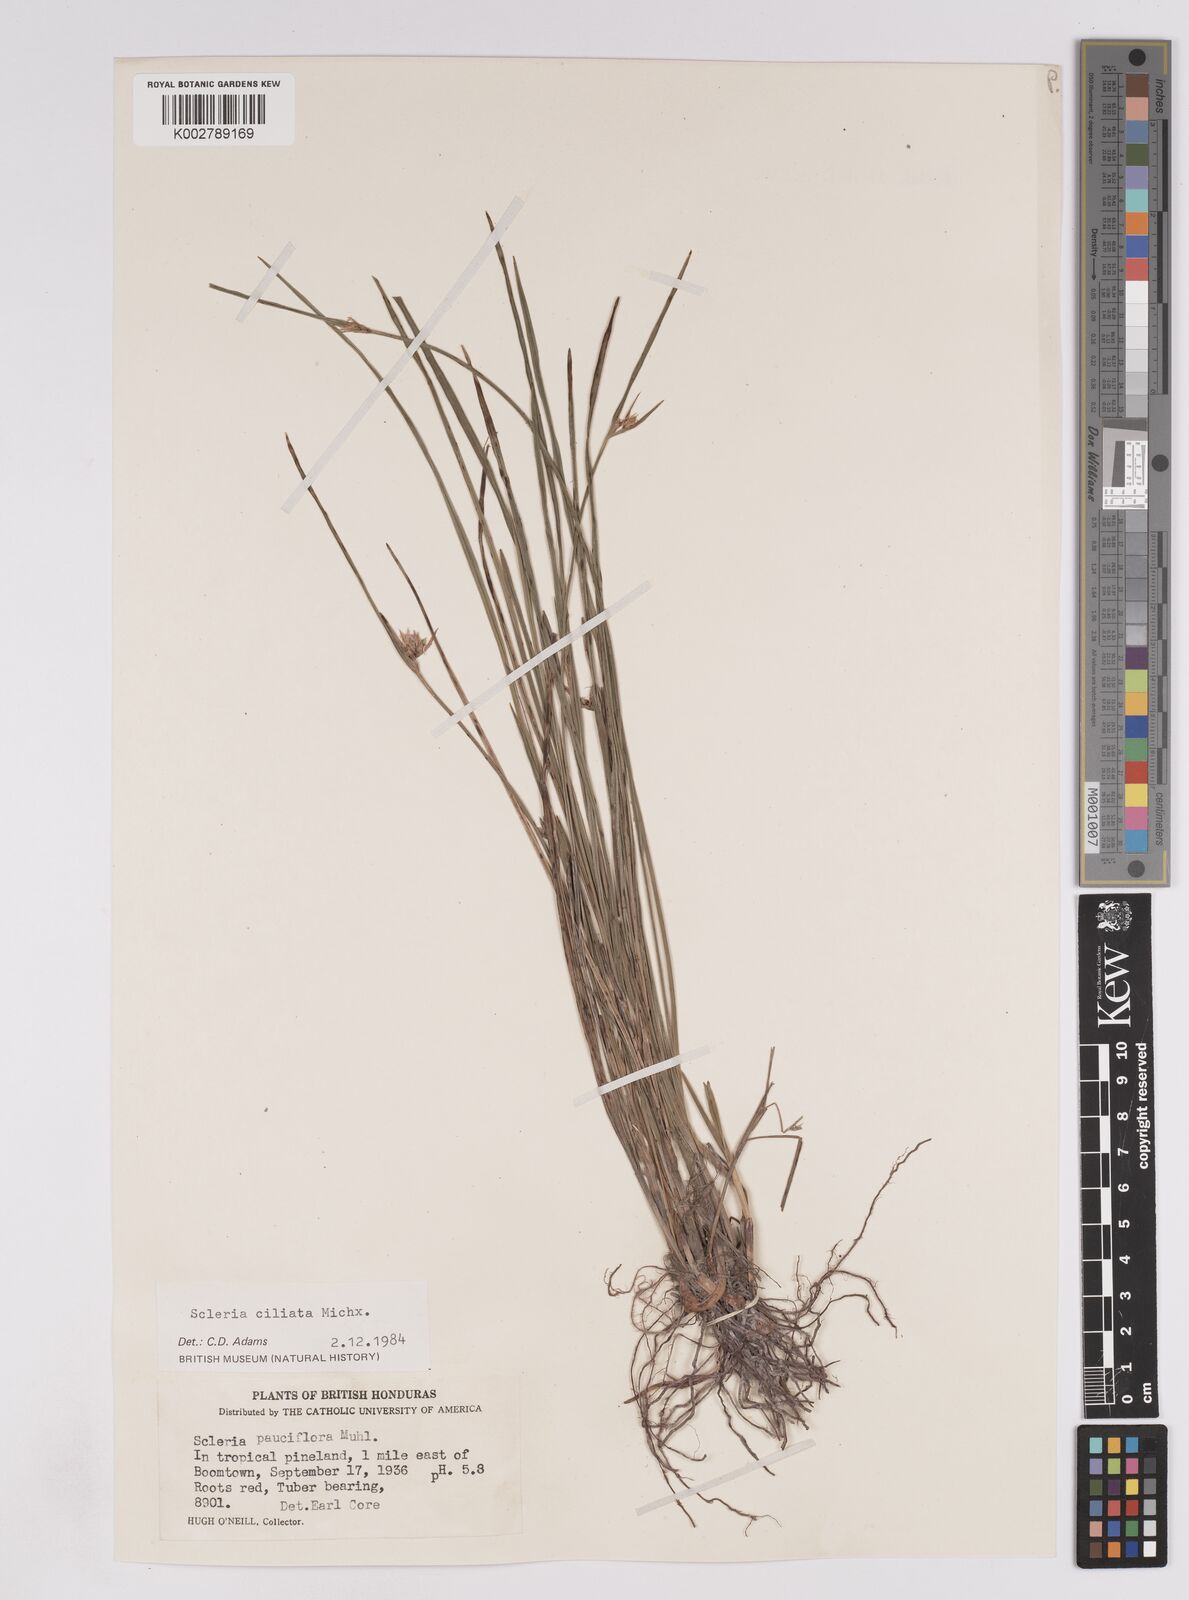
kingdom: Plantae
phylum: Tracheophyta
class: Liliopsida
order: Poales
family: Cyperaceae
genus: Scleria
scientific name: Scleria ciliata
